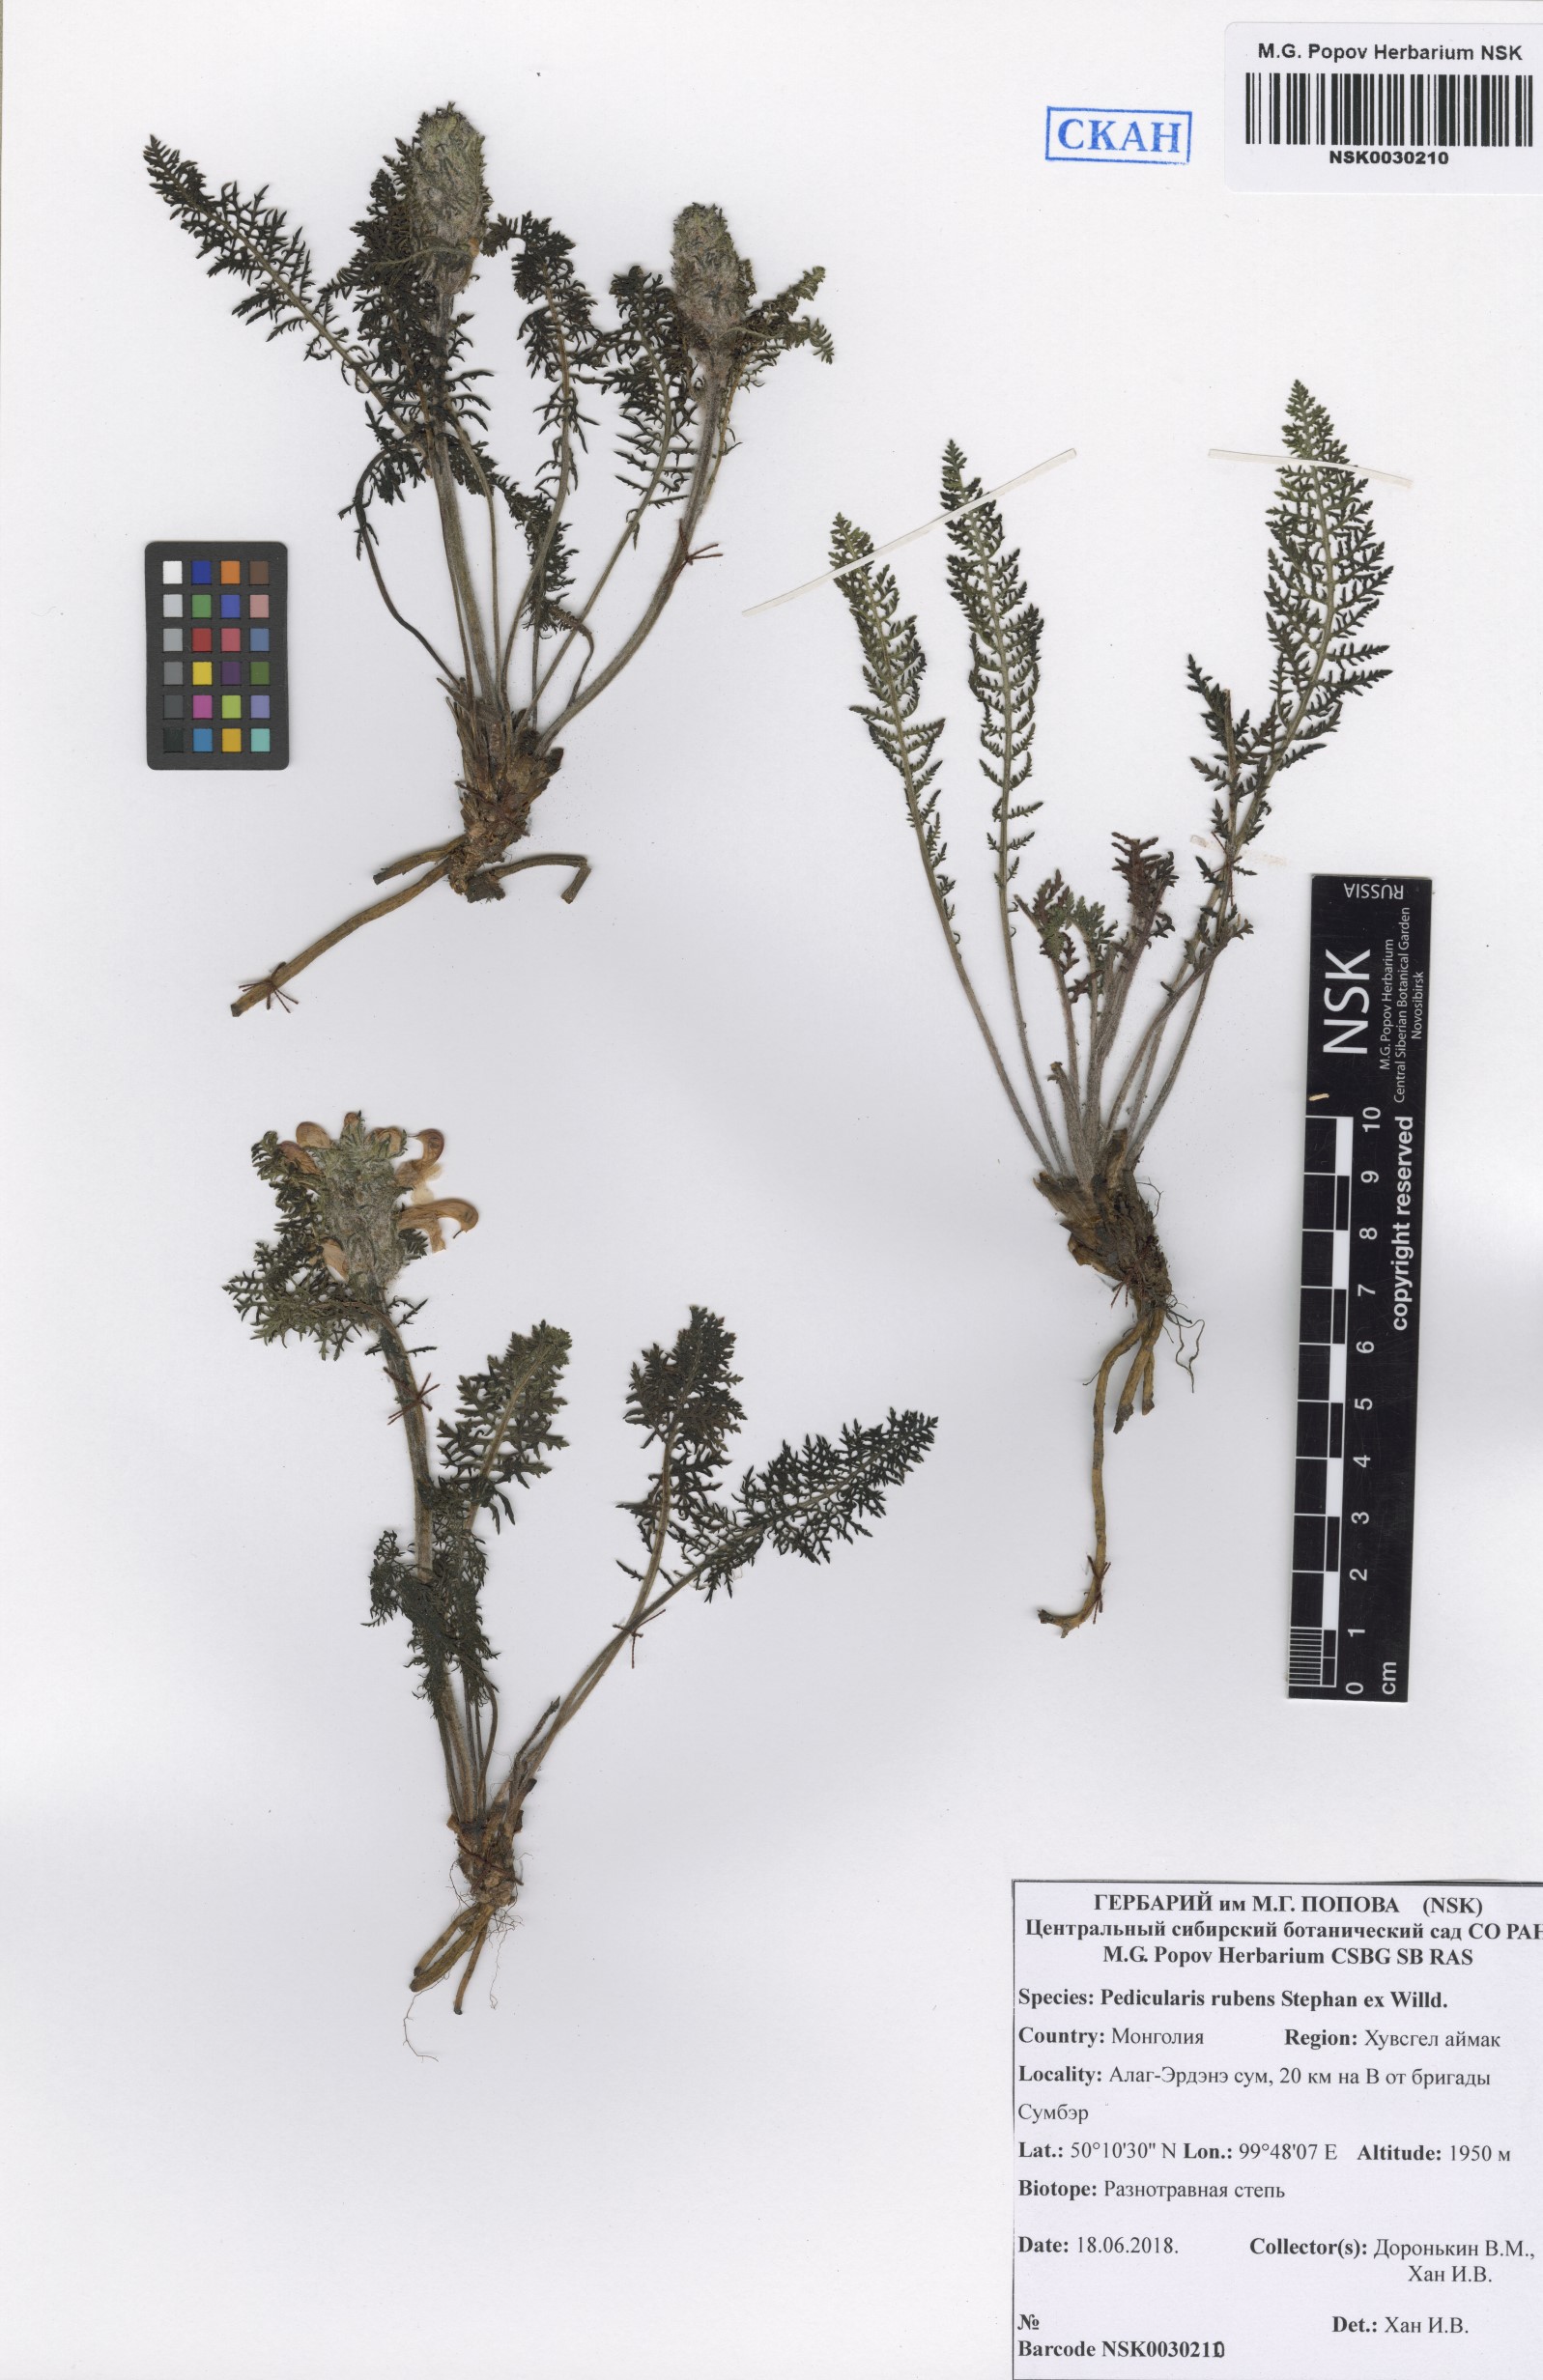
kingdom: Plantae
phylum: Tracheophyta
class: Magnoliopsida
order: Lamiales
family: Orobanchaceae
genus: Pedicularis
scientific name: Pedicularis rubens
